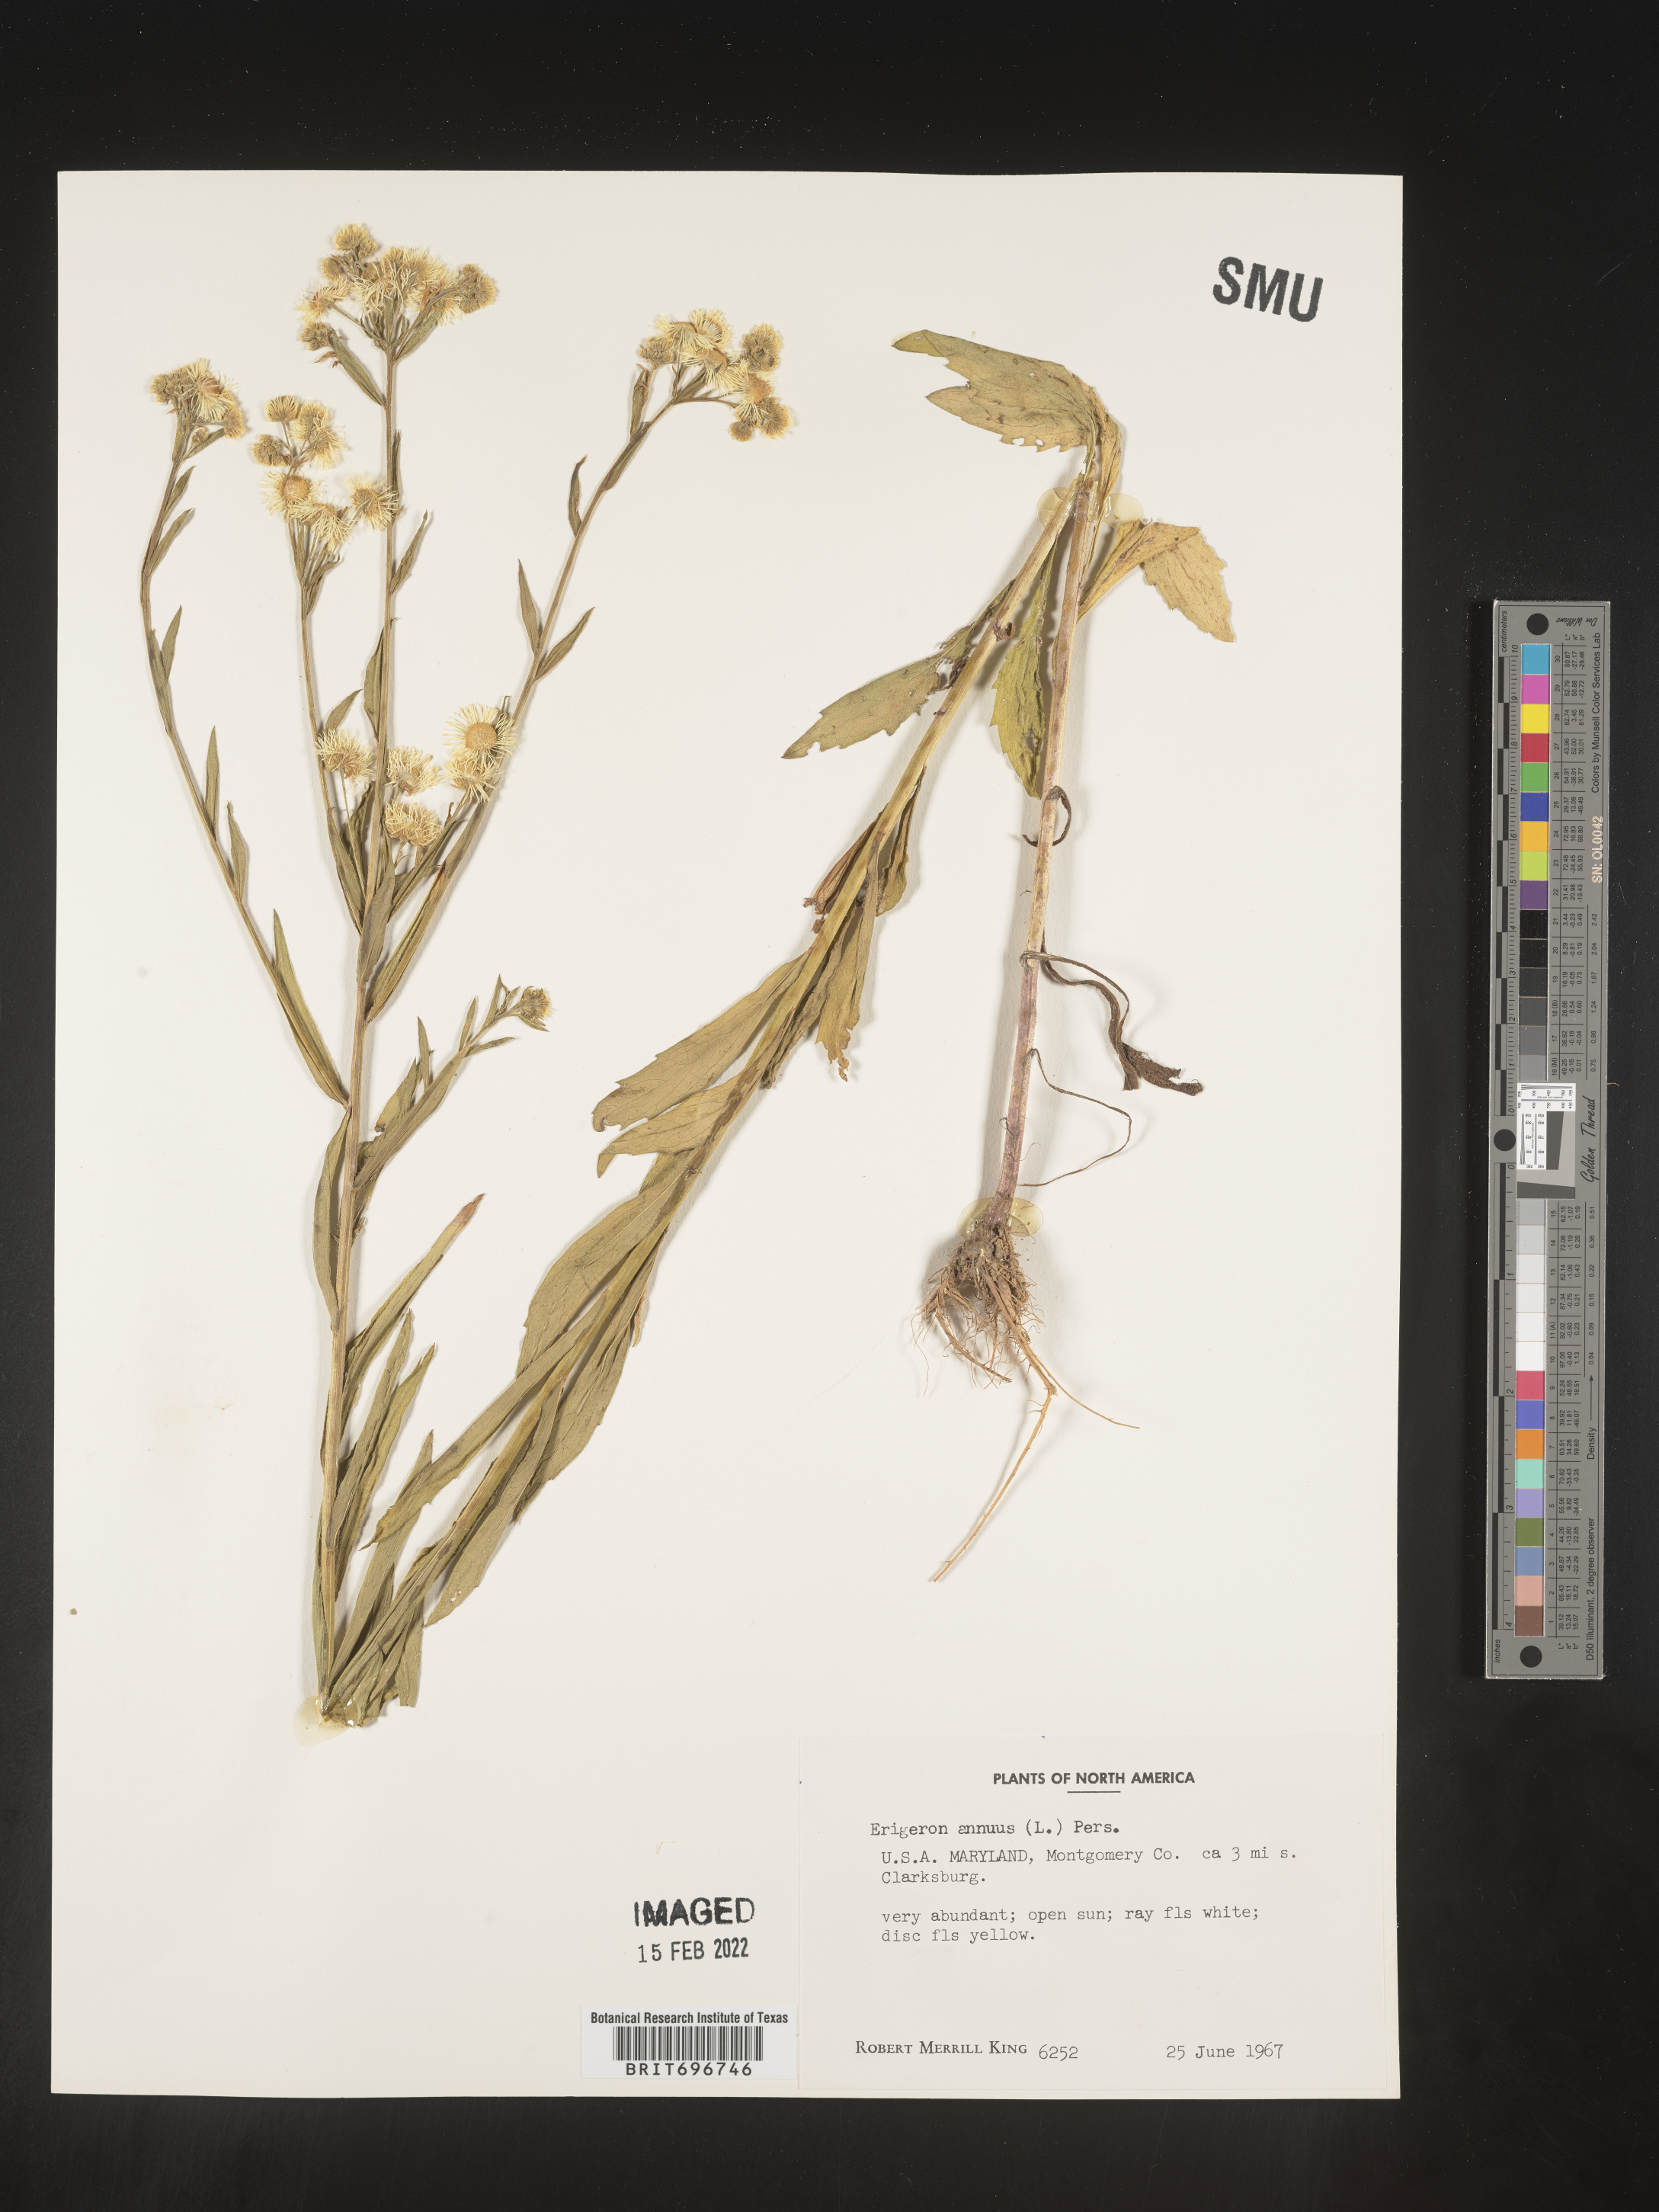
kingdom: Plantae
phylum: Tracheophyta
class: Magnoliopsida
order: Asterales
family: Asteraceae
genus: Erigeron
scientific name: Erigeron annuus
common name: Tall fleabane
